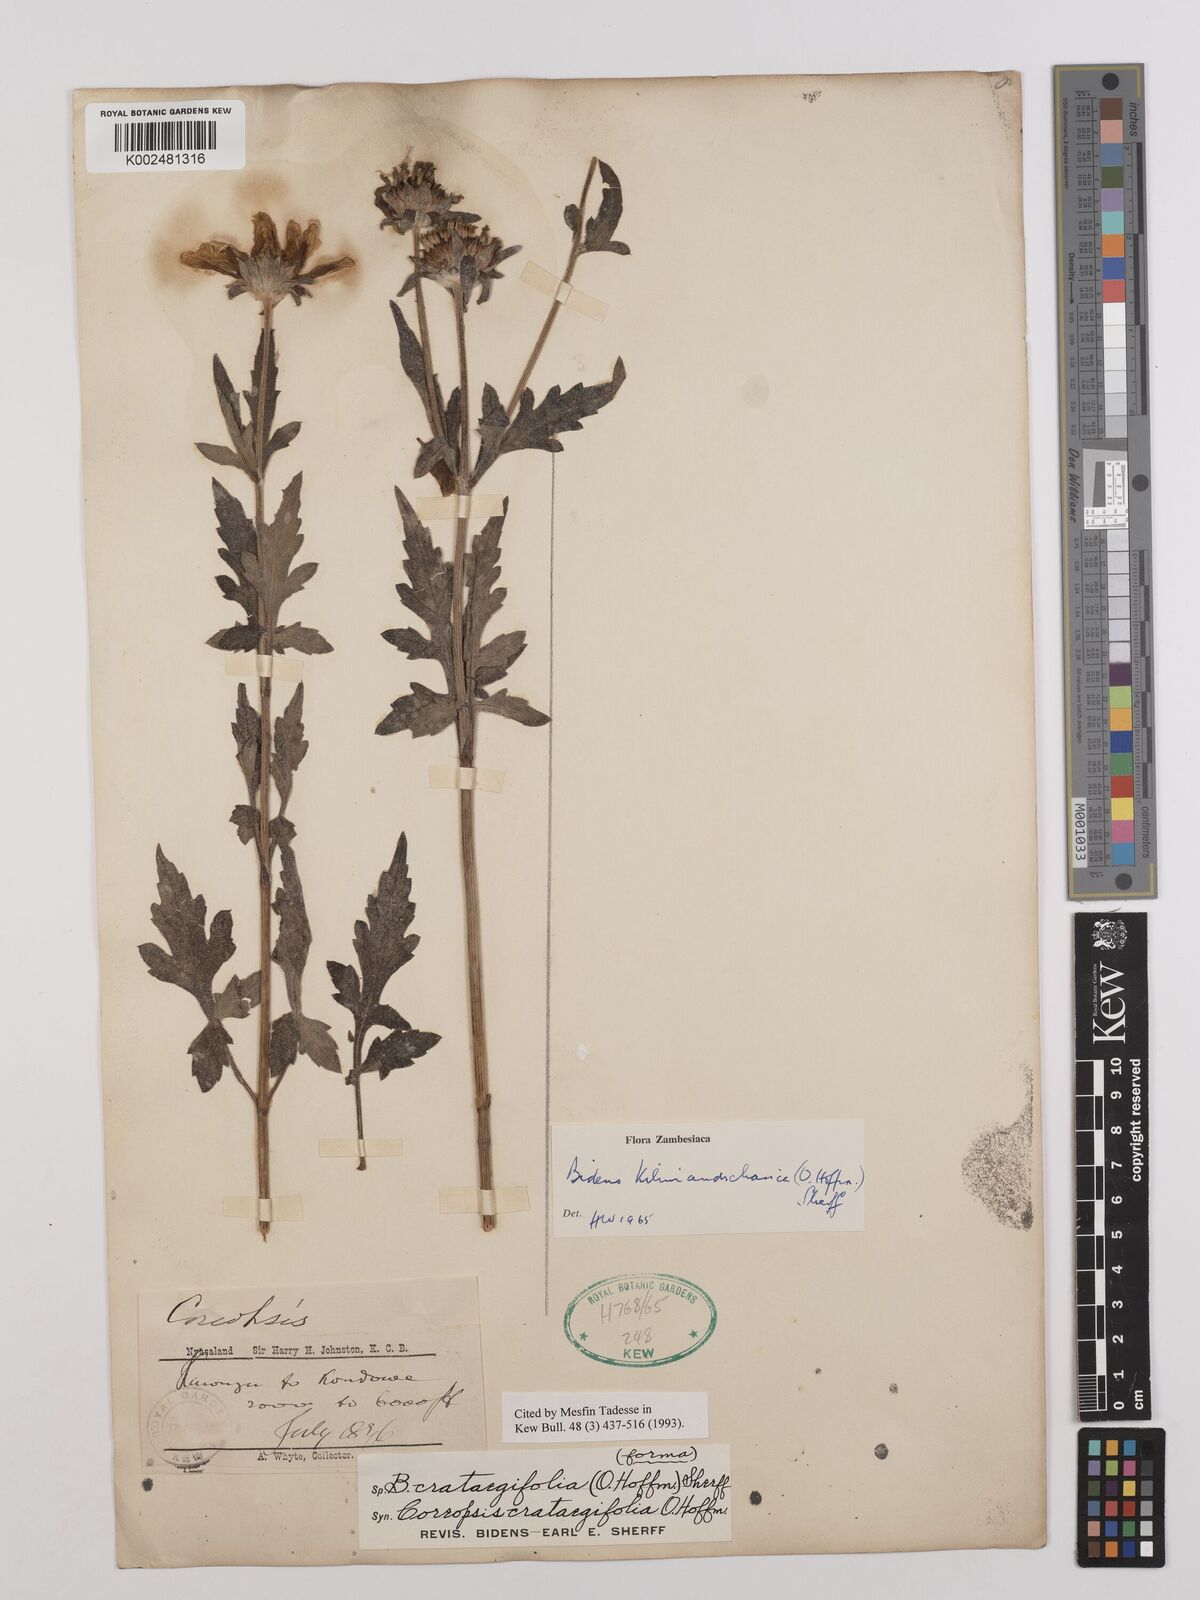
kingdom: Plantae
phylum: Tracheophyta
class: Magnoliopsida
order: Asterales
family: Asteraceae
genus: Bidens
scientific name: Bidens kilimandscharica
